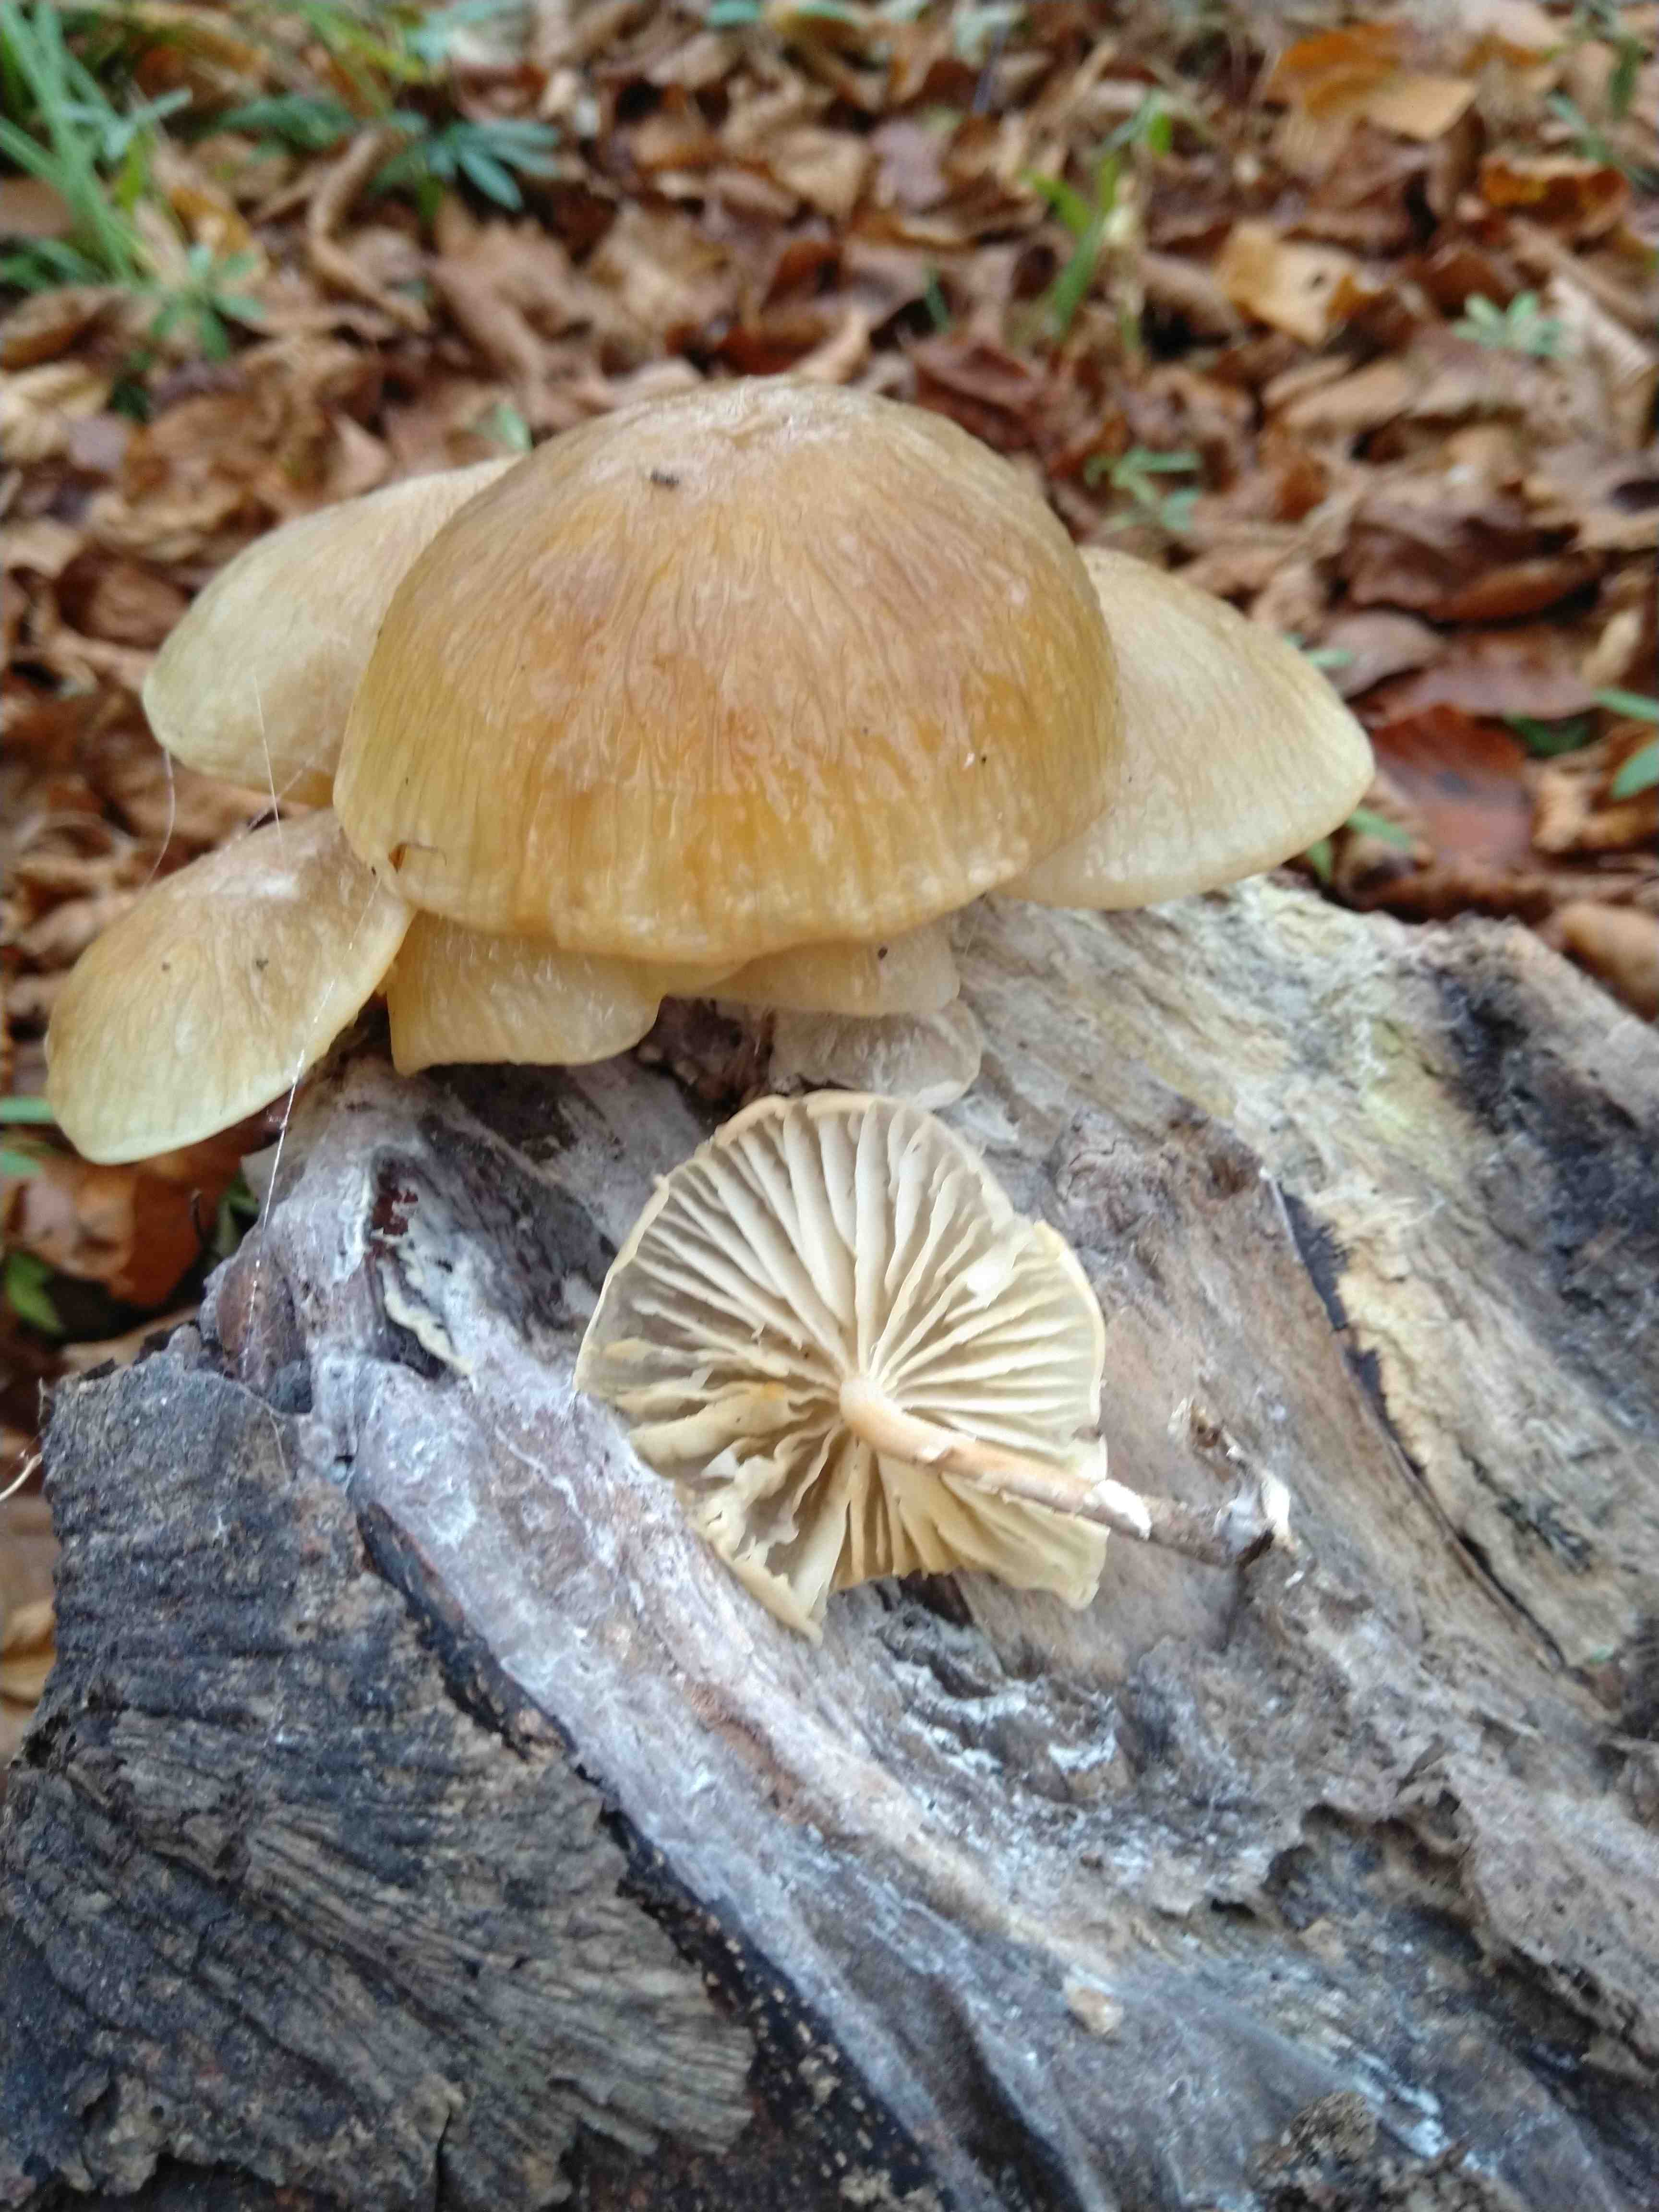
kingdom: Fungi
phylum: Basidiomycota
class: Agaricomycetes
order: Agaricales
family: Physalacriaceae
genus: Mucidula
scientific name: Mucidula mucida
